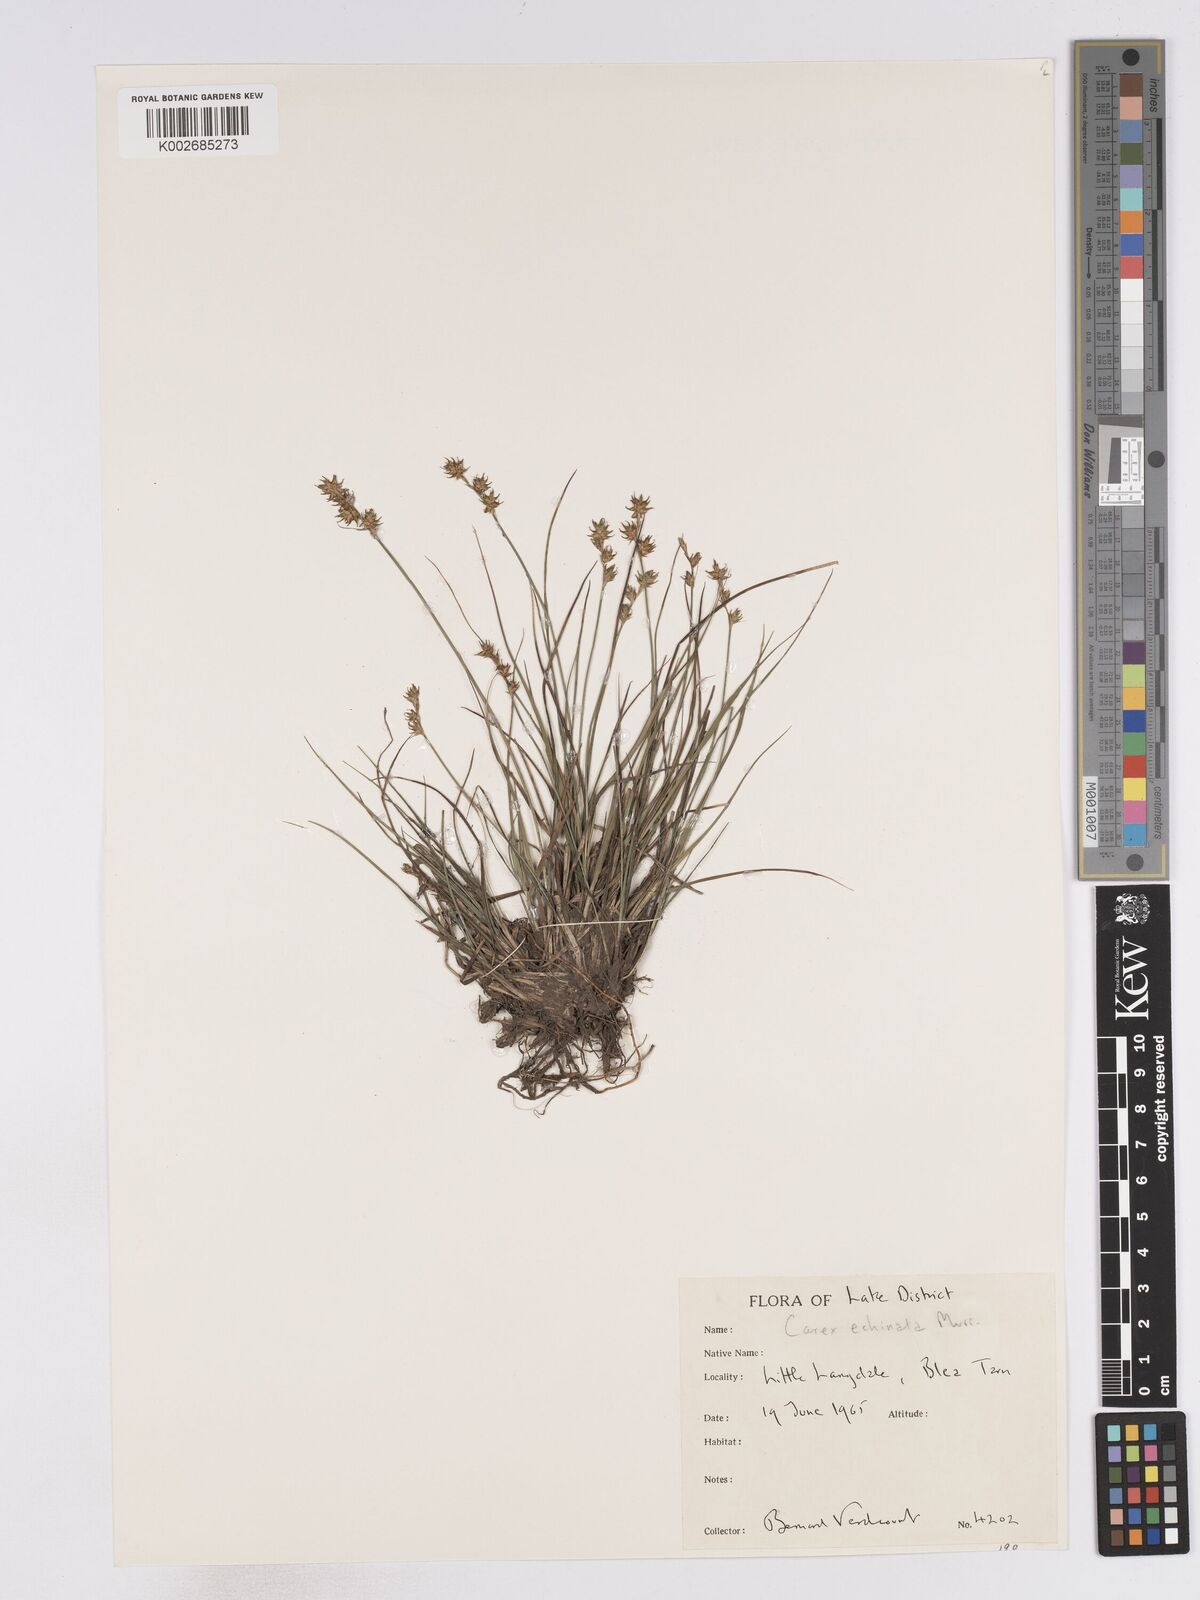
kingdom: Plantae
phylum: Tracheophyta
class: Liliopsida
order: Poales
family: Cyperaceae
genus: Carex
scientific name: Carex echinata
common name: Star sedge
